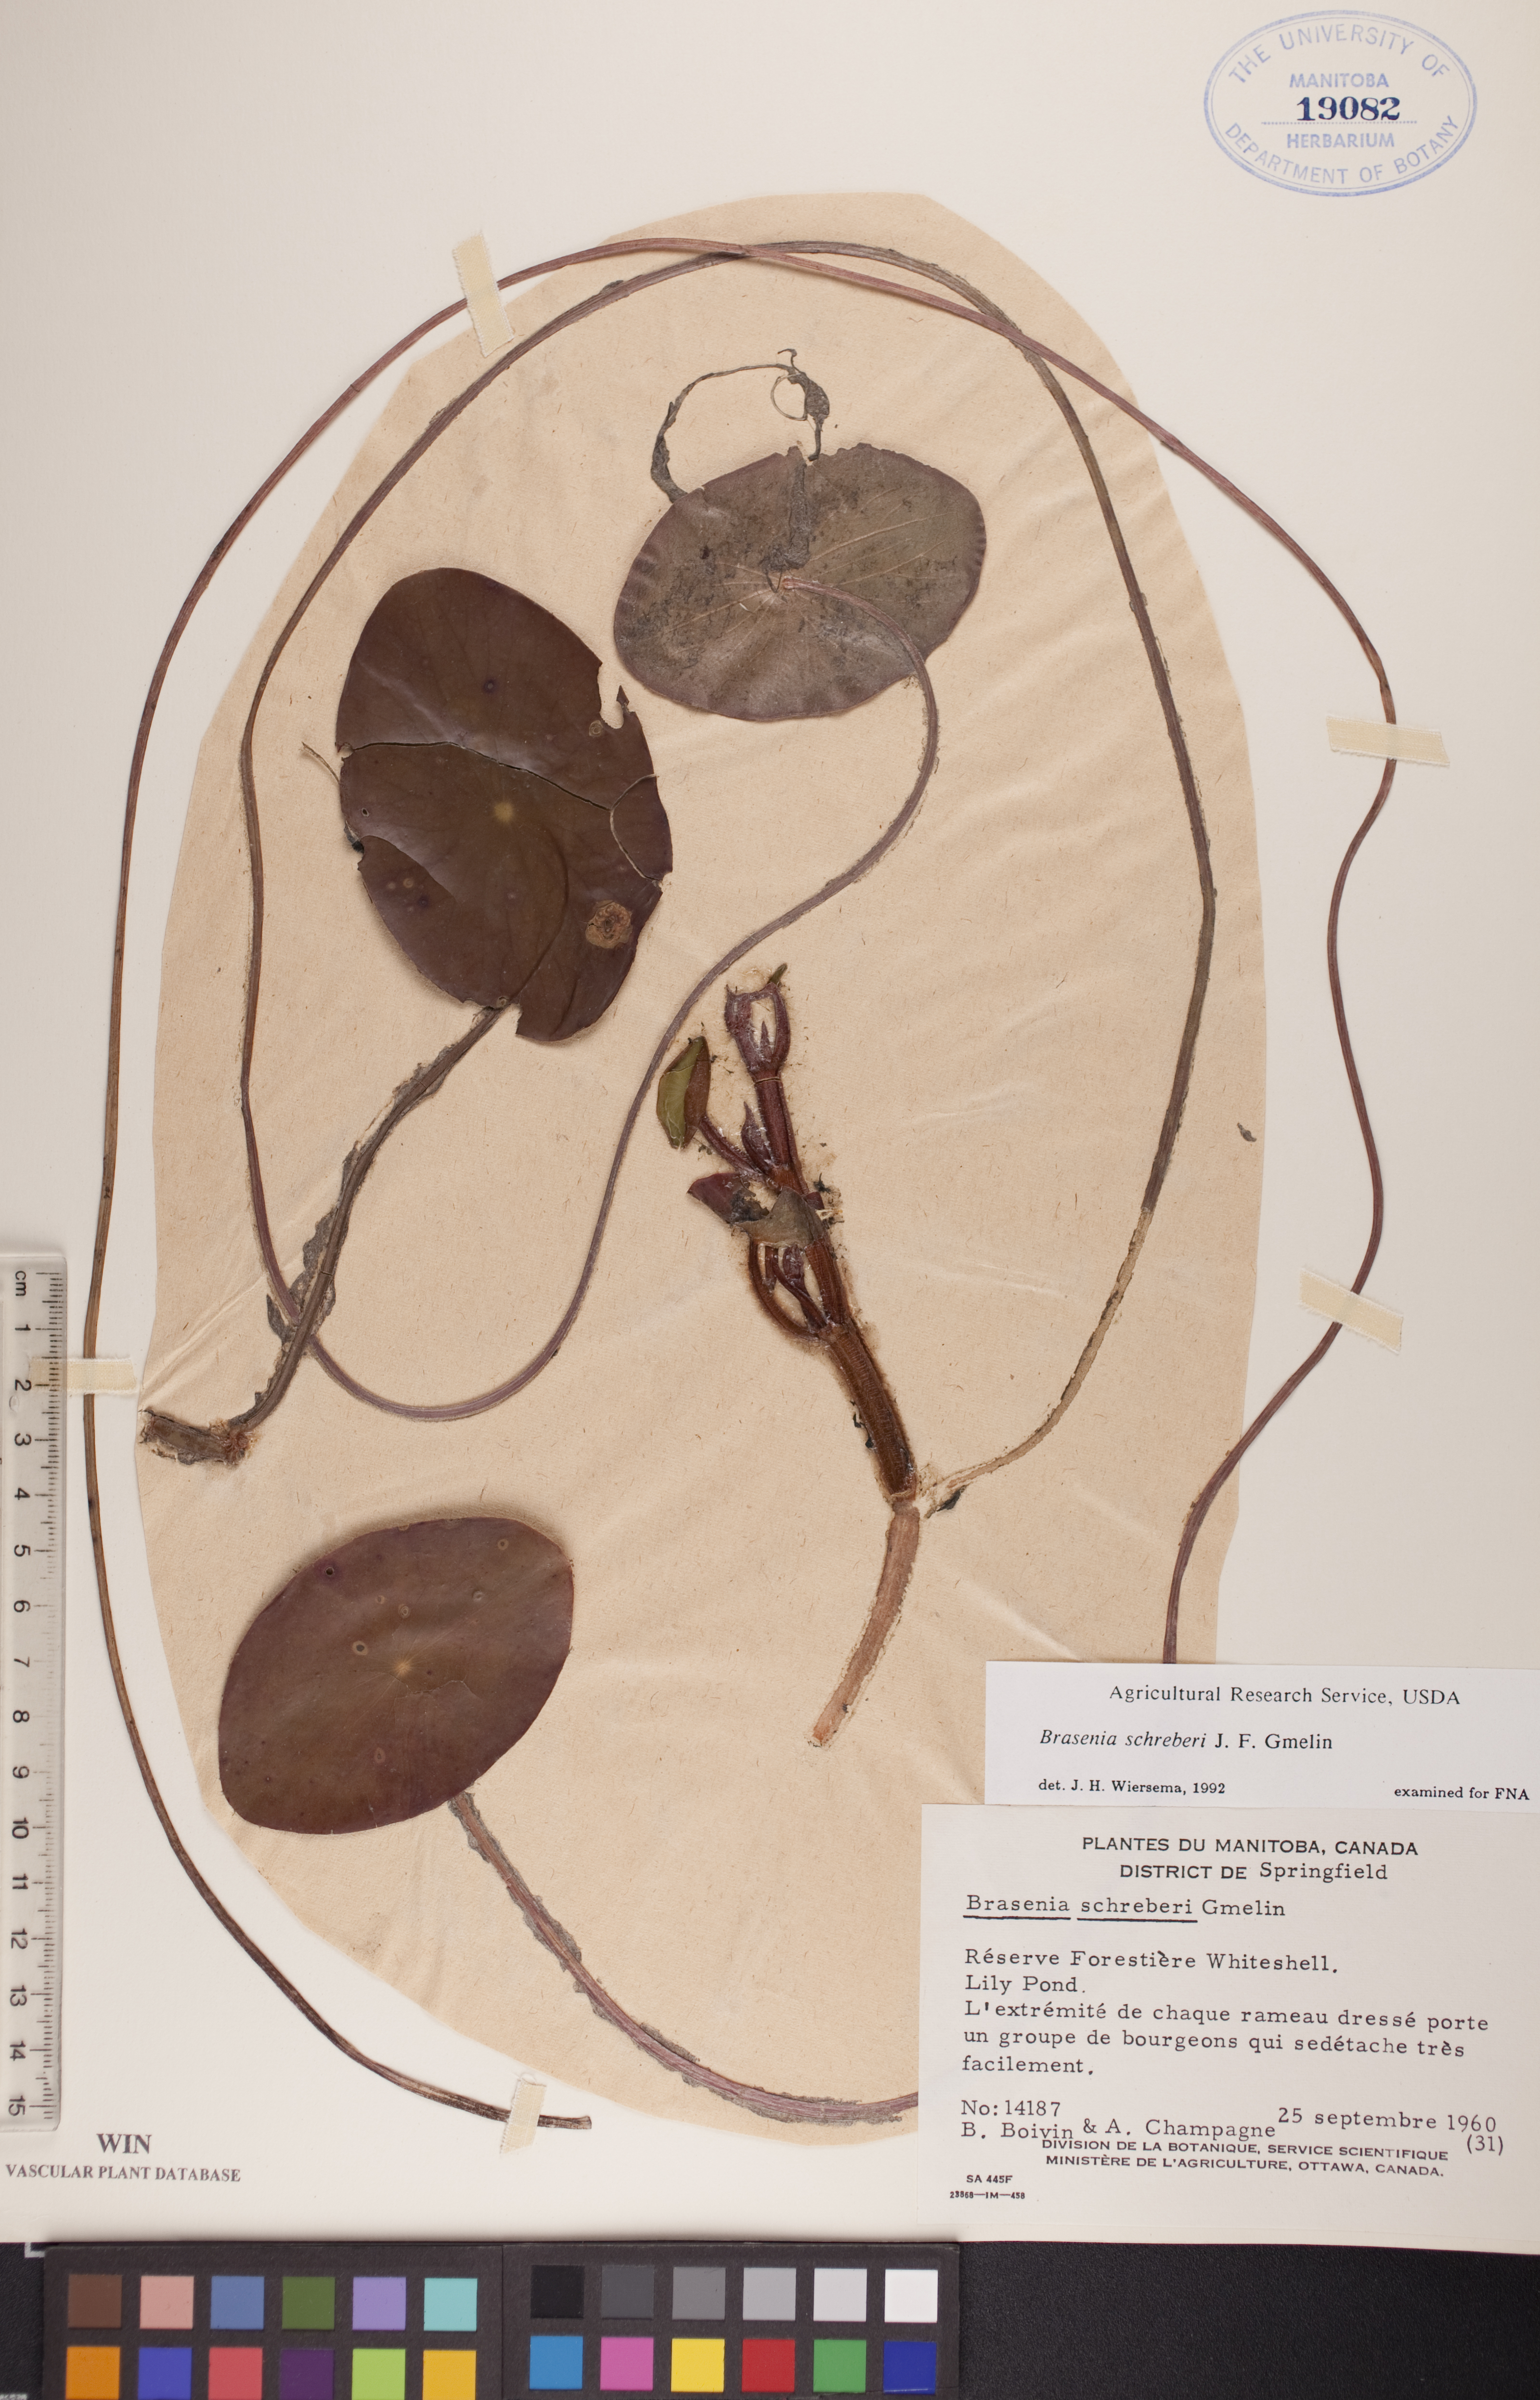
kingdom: Plantae
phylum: Tracheophyta
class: Magnoliopsida
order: Nymphaeales
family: Cabombaceae
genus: Brasenia
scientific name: Brasenia schreberi
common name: Water-shield
